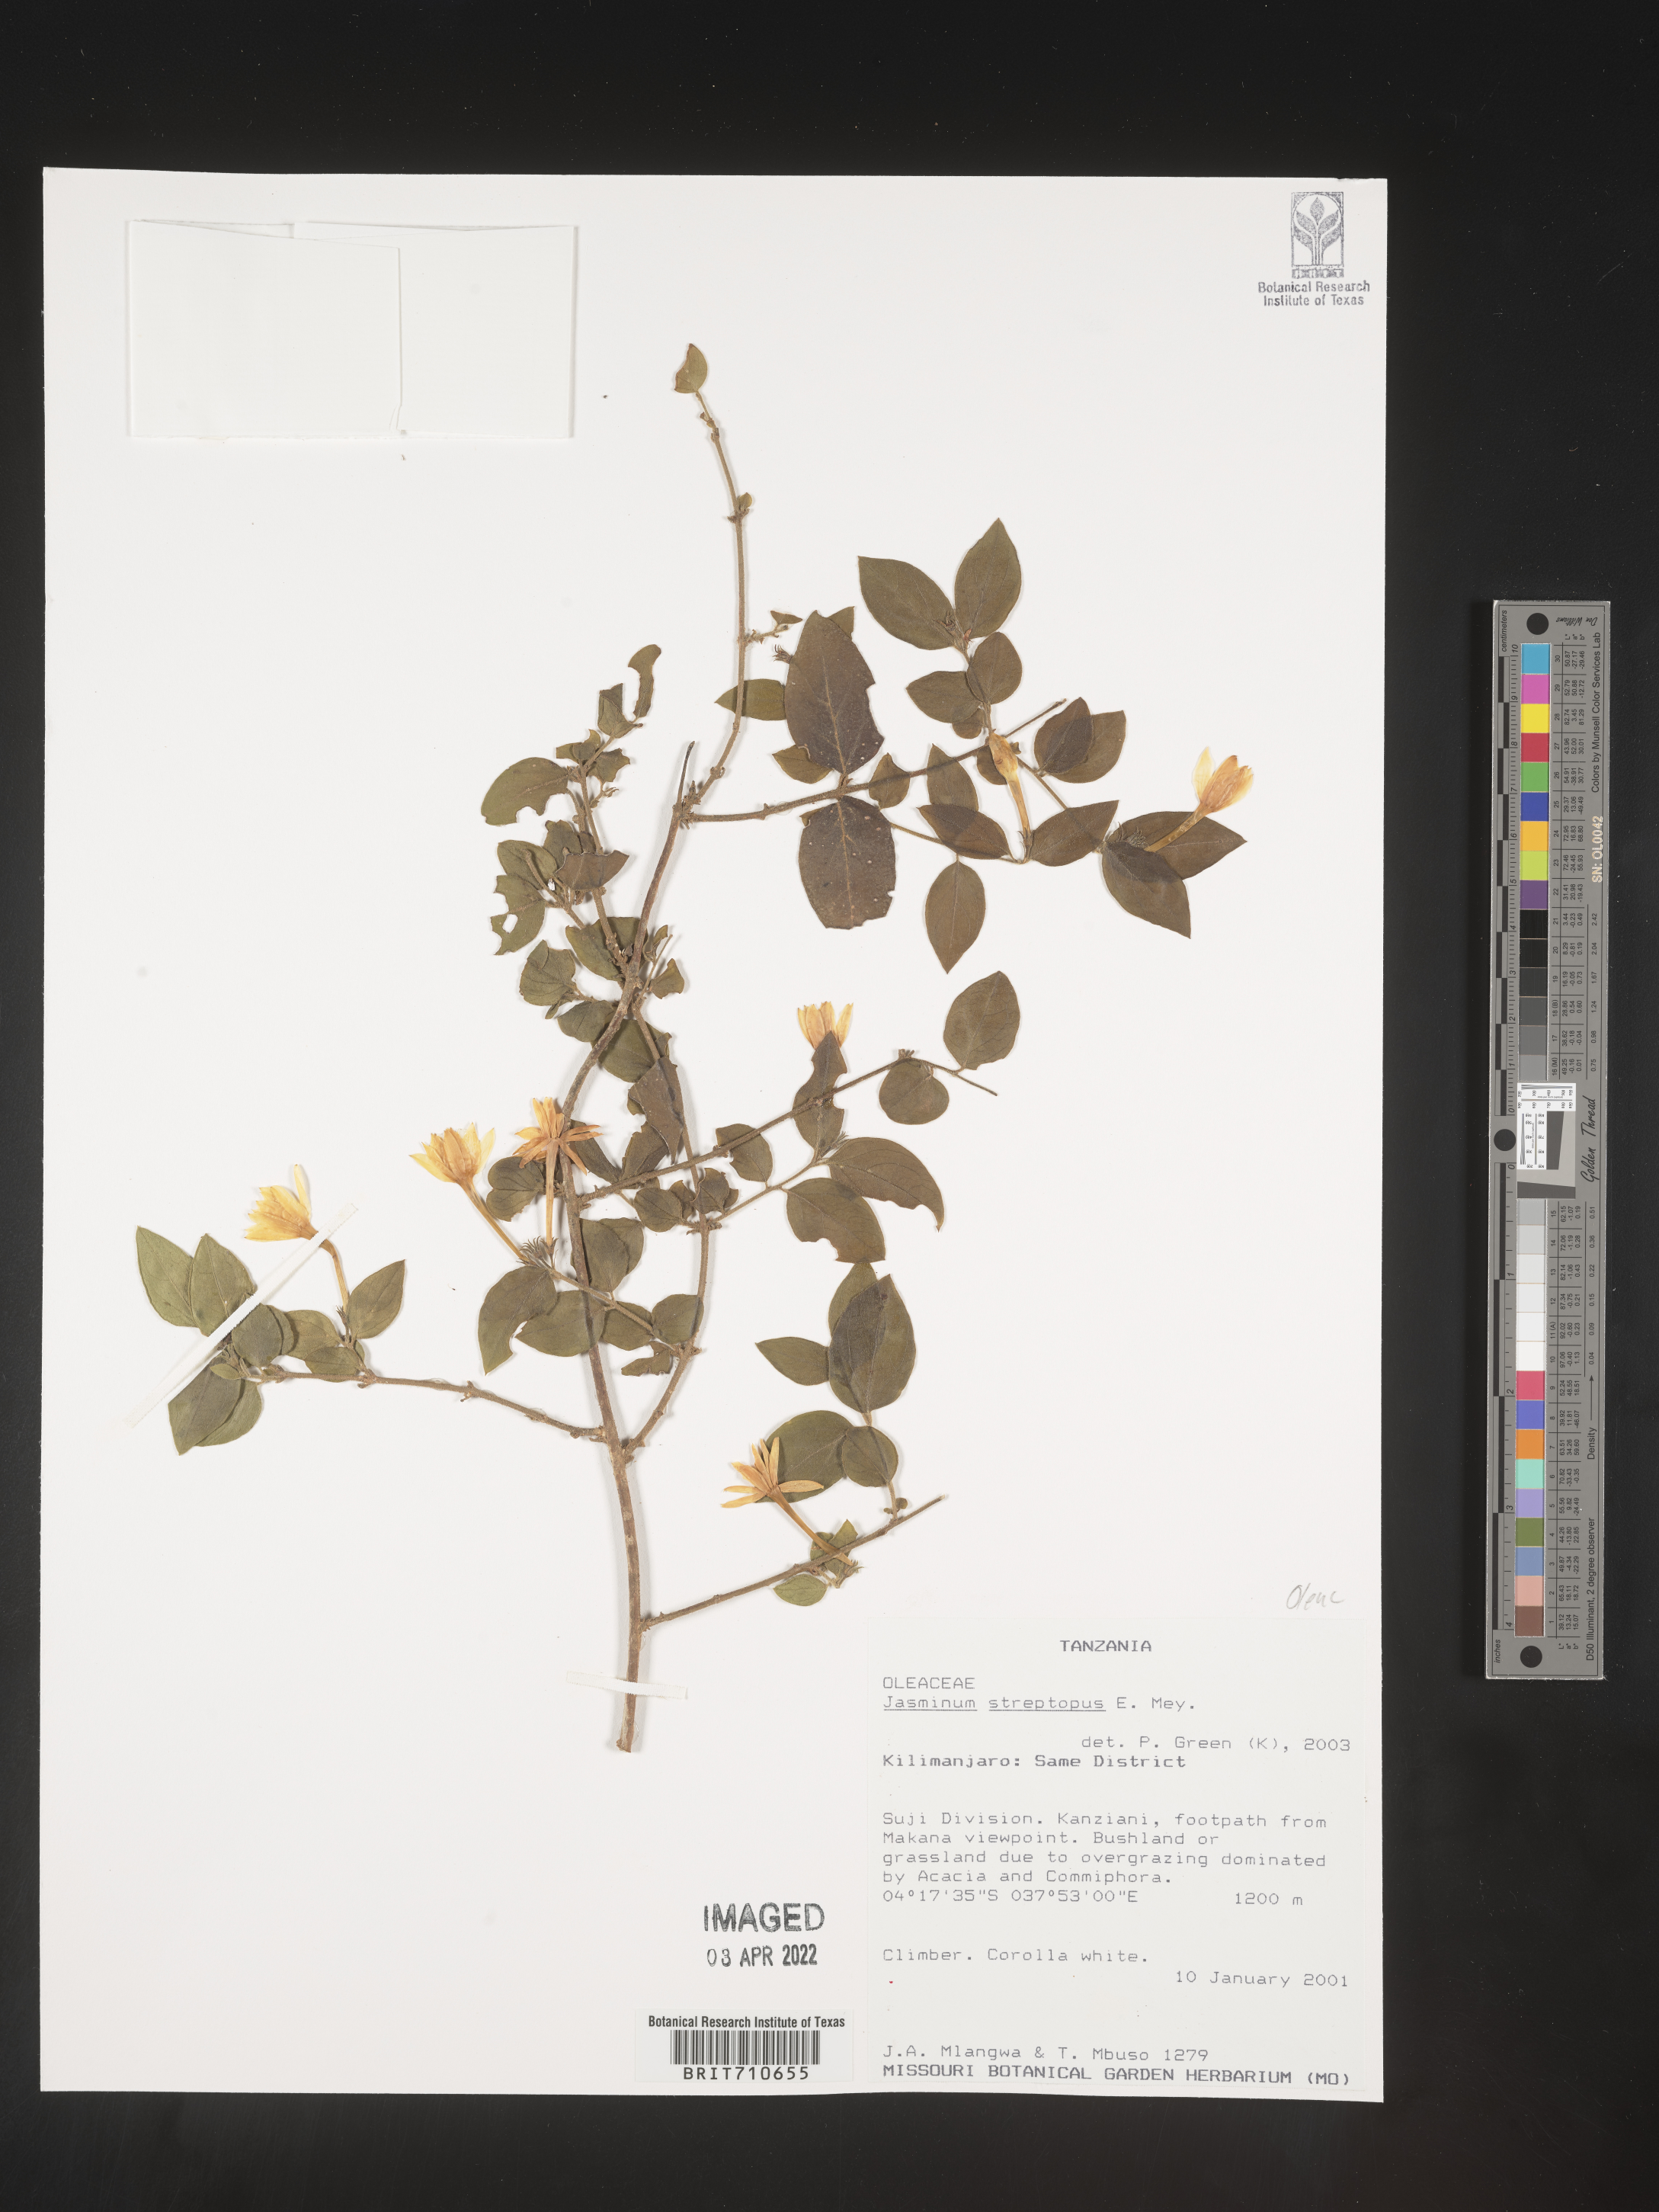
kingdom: Plantae
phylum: Tracheophyta
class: Magnoliopsida
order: Lamiales
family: Oleaceae
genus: Jasminum
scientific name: Jasminum
